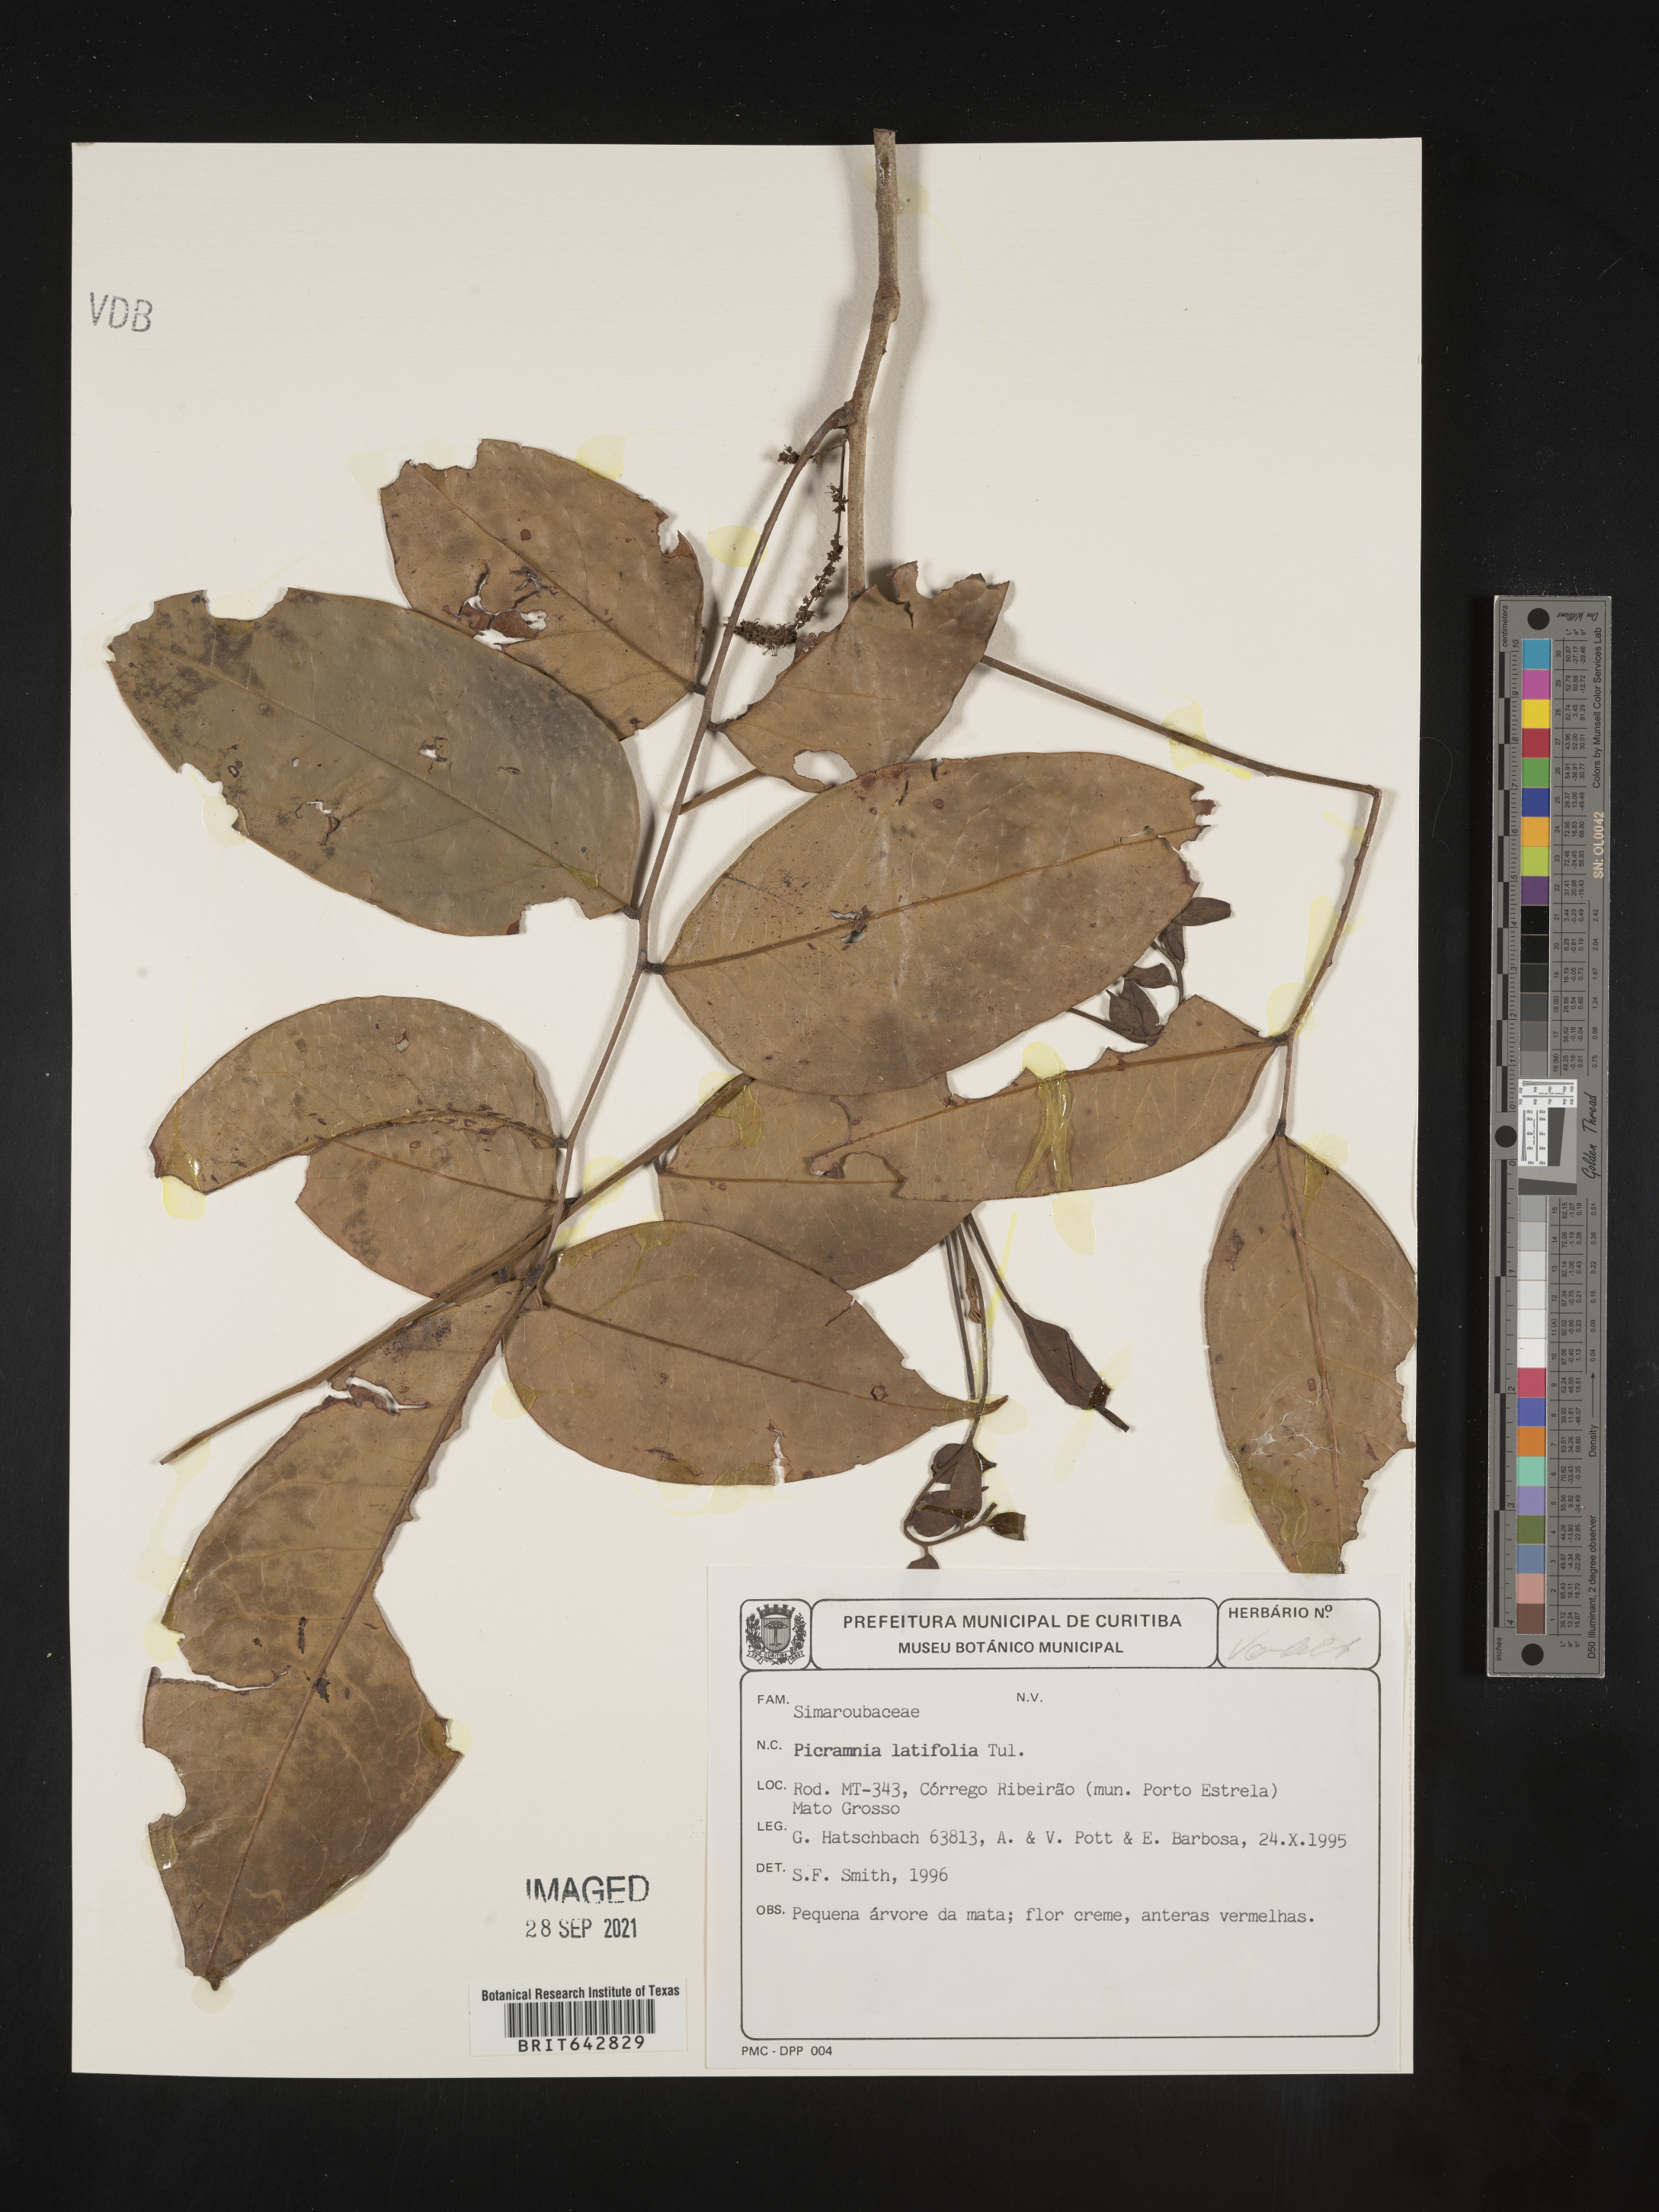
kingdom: Plantae
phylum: Tracheophyta
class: Magnoliopsida
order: Picramniales
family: Picramniaceae
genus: Picramnia
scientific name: Picramnia
